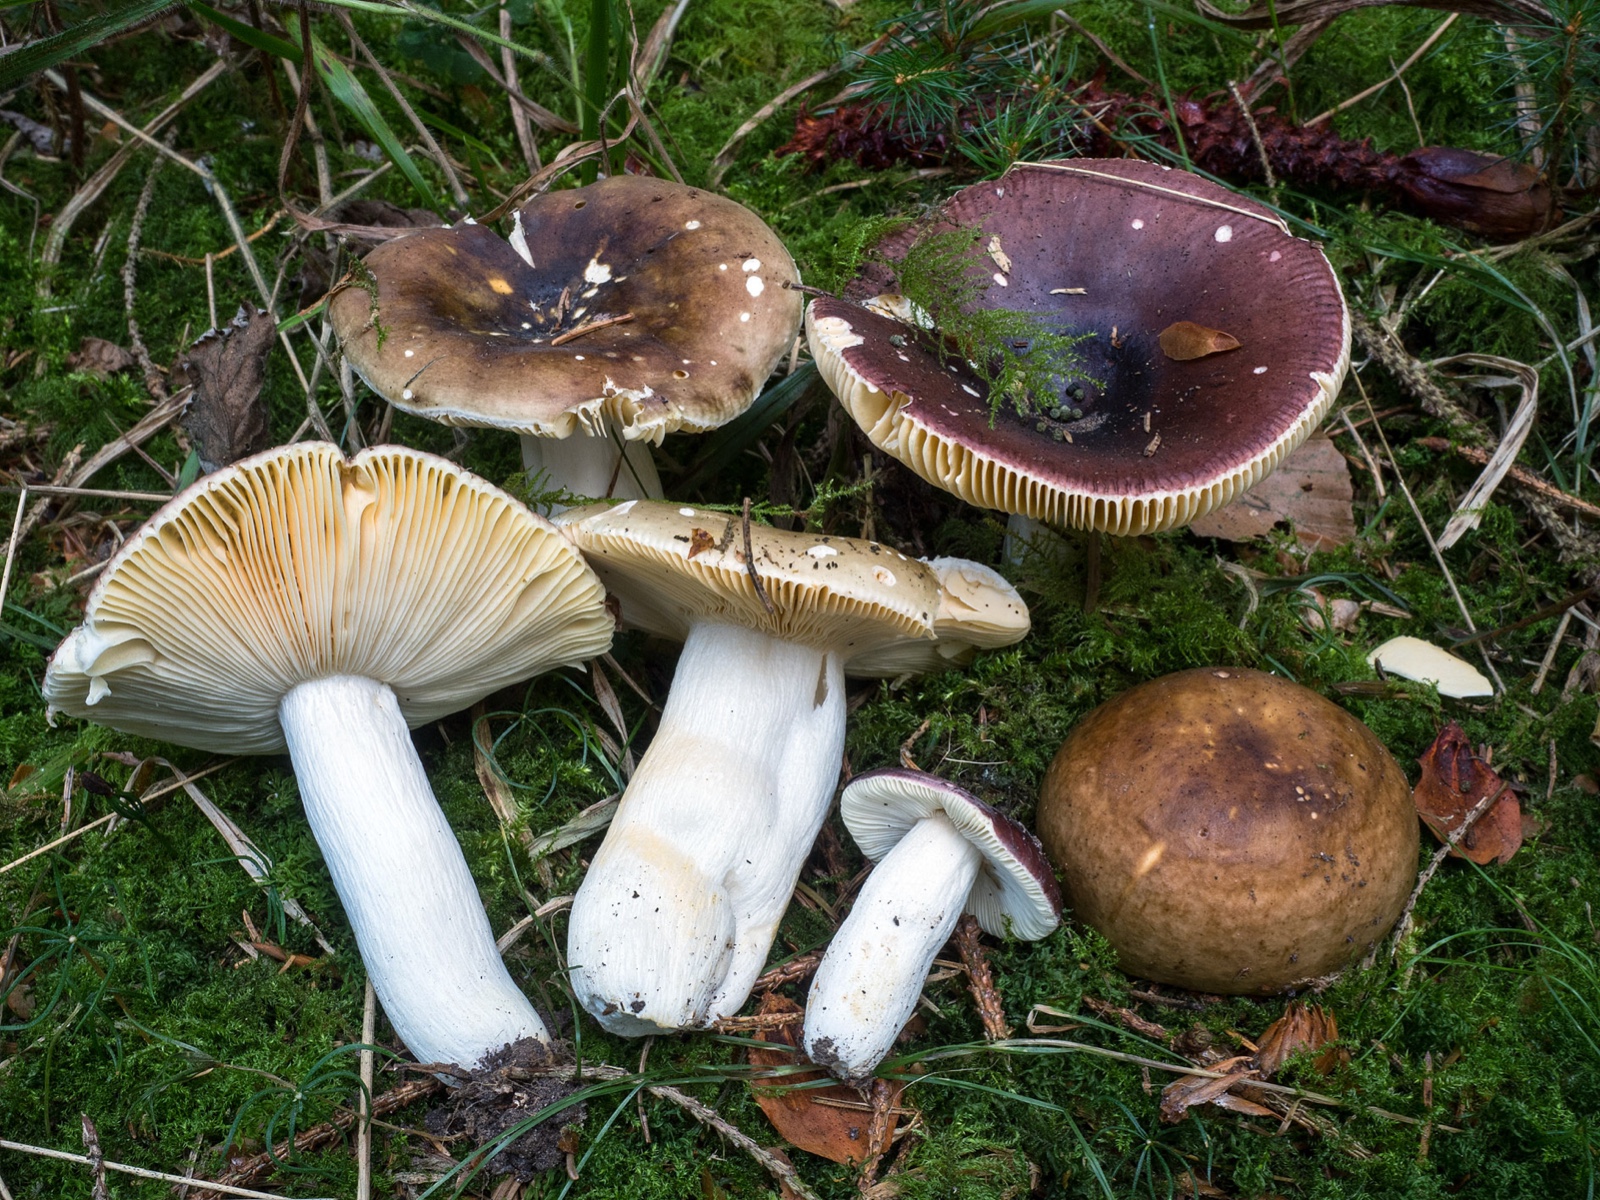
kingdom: Fungi
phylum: Basidiomycota
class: Agaricomycetes
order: Russulales
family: Russulaceae
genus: Russula
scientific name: Russula integra
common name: mandel-skørhat
